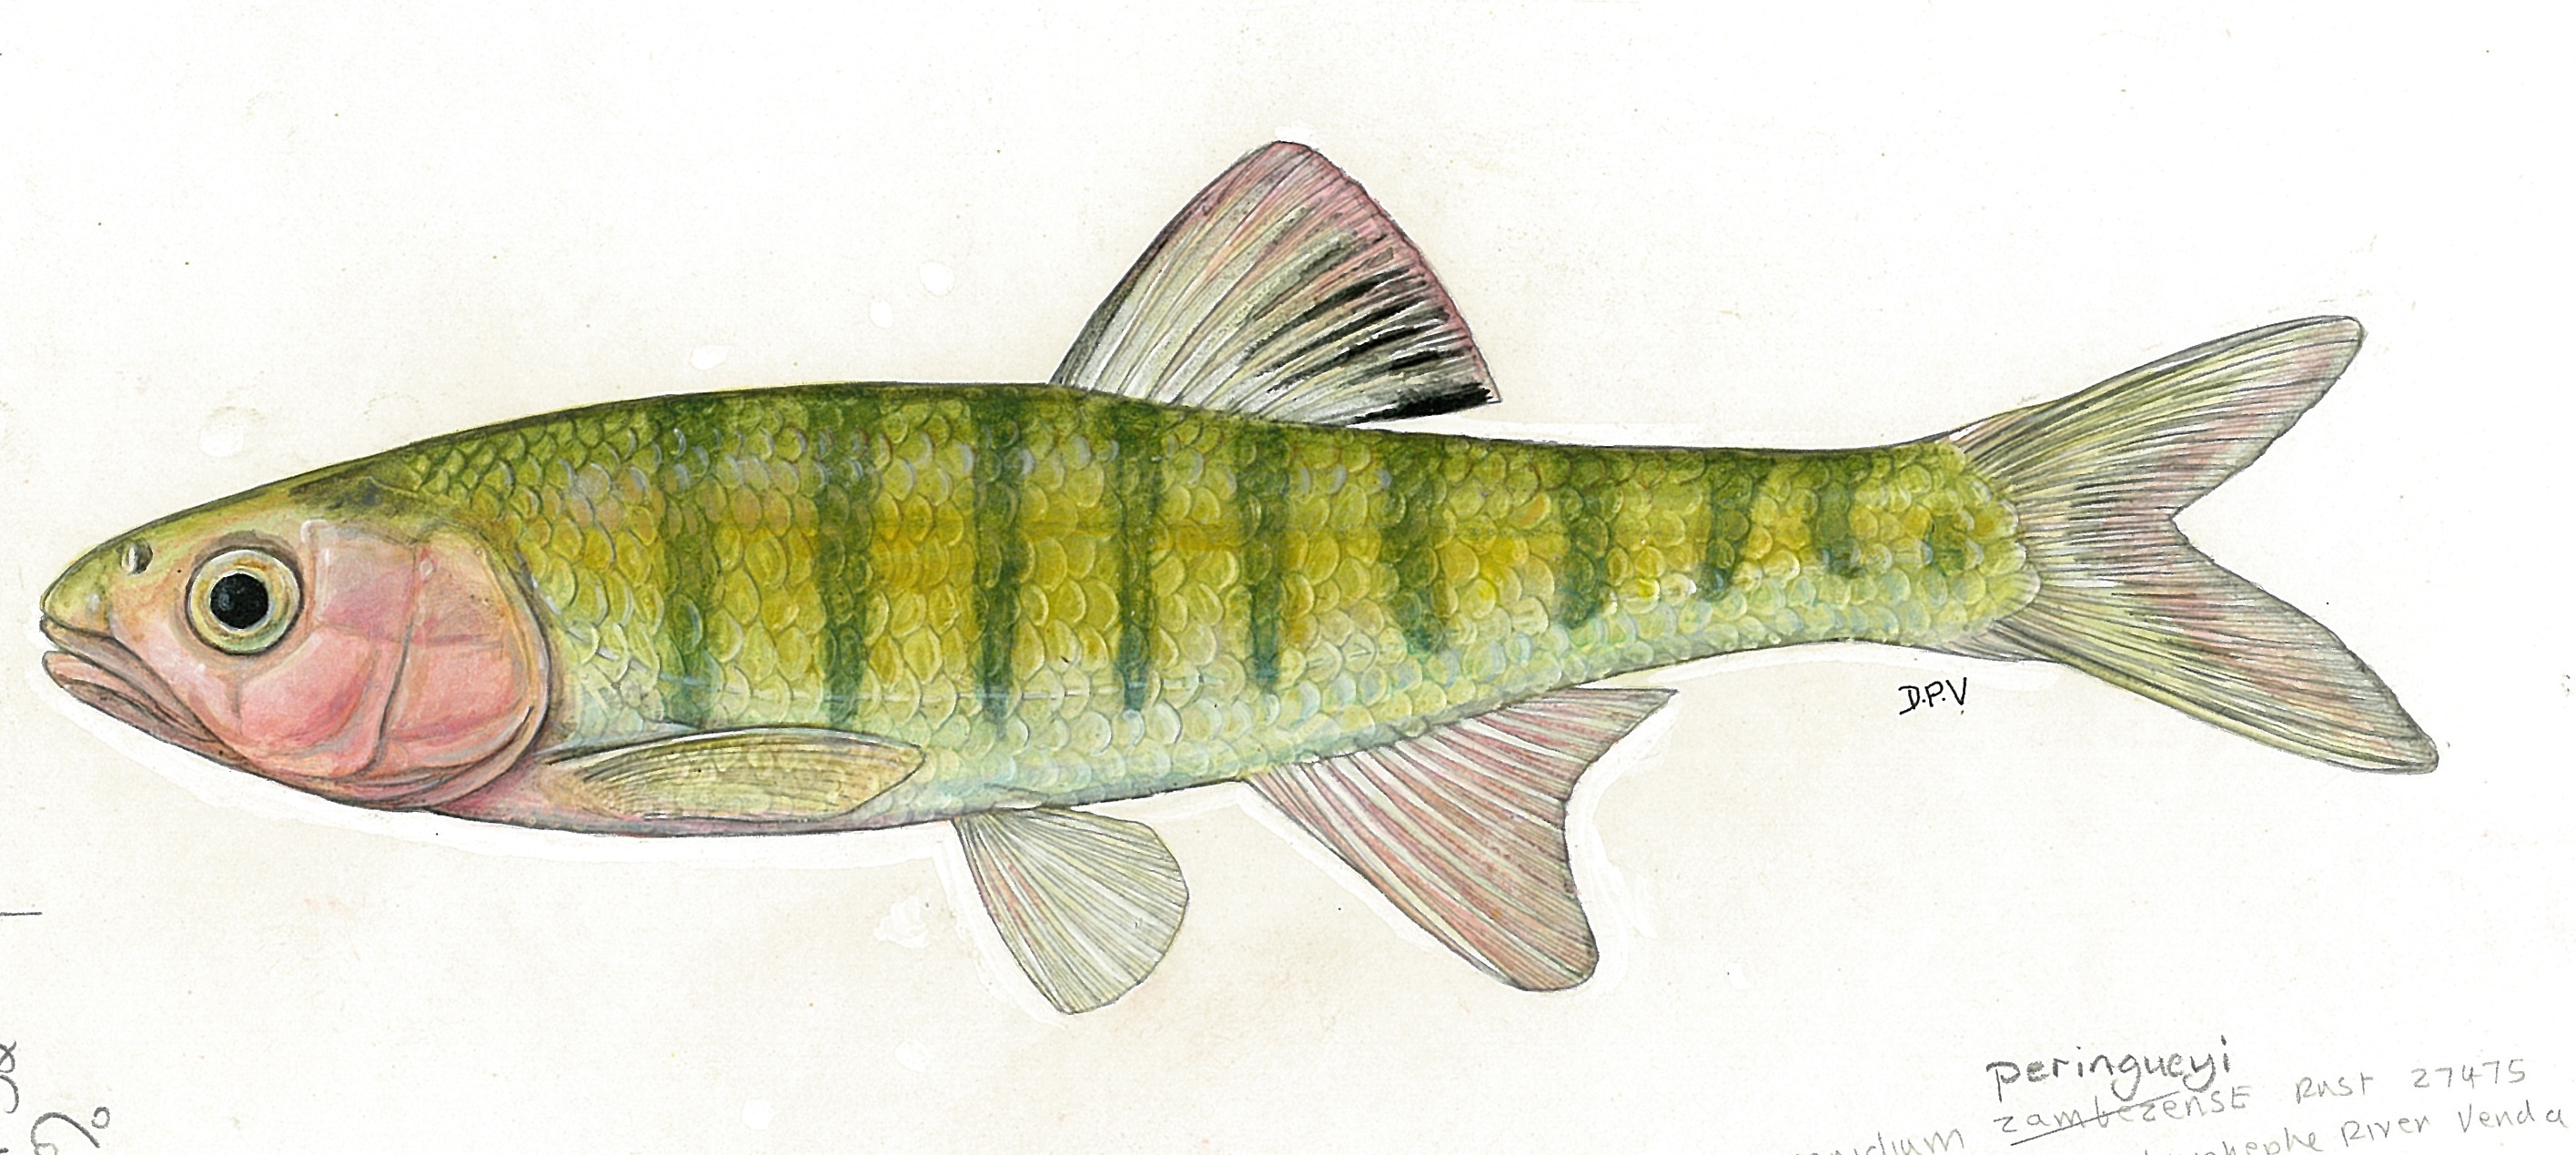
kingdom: Animalia
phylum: Chordata
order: Cypriniformes
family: Cyprinidae
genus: Opsaridium
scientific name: Opsaridium peringueyi
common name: Southern barred minnow
